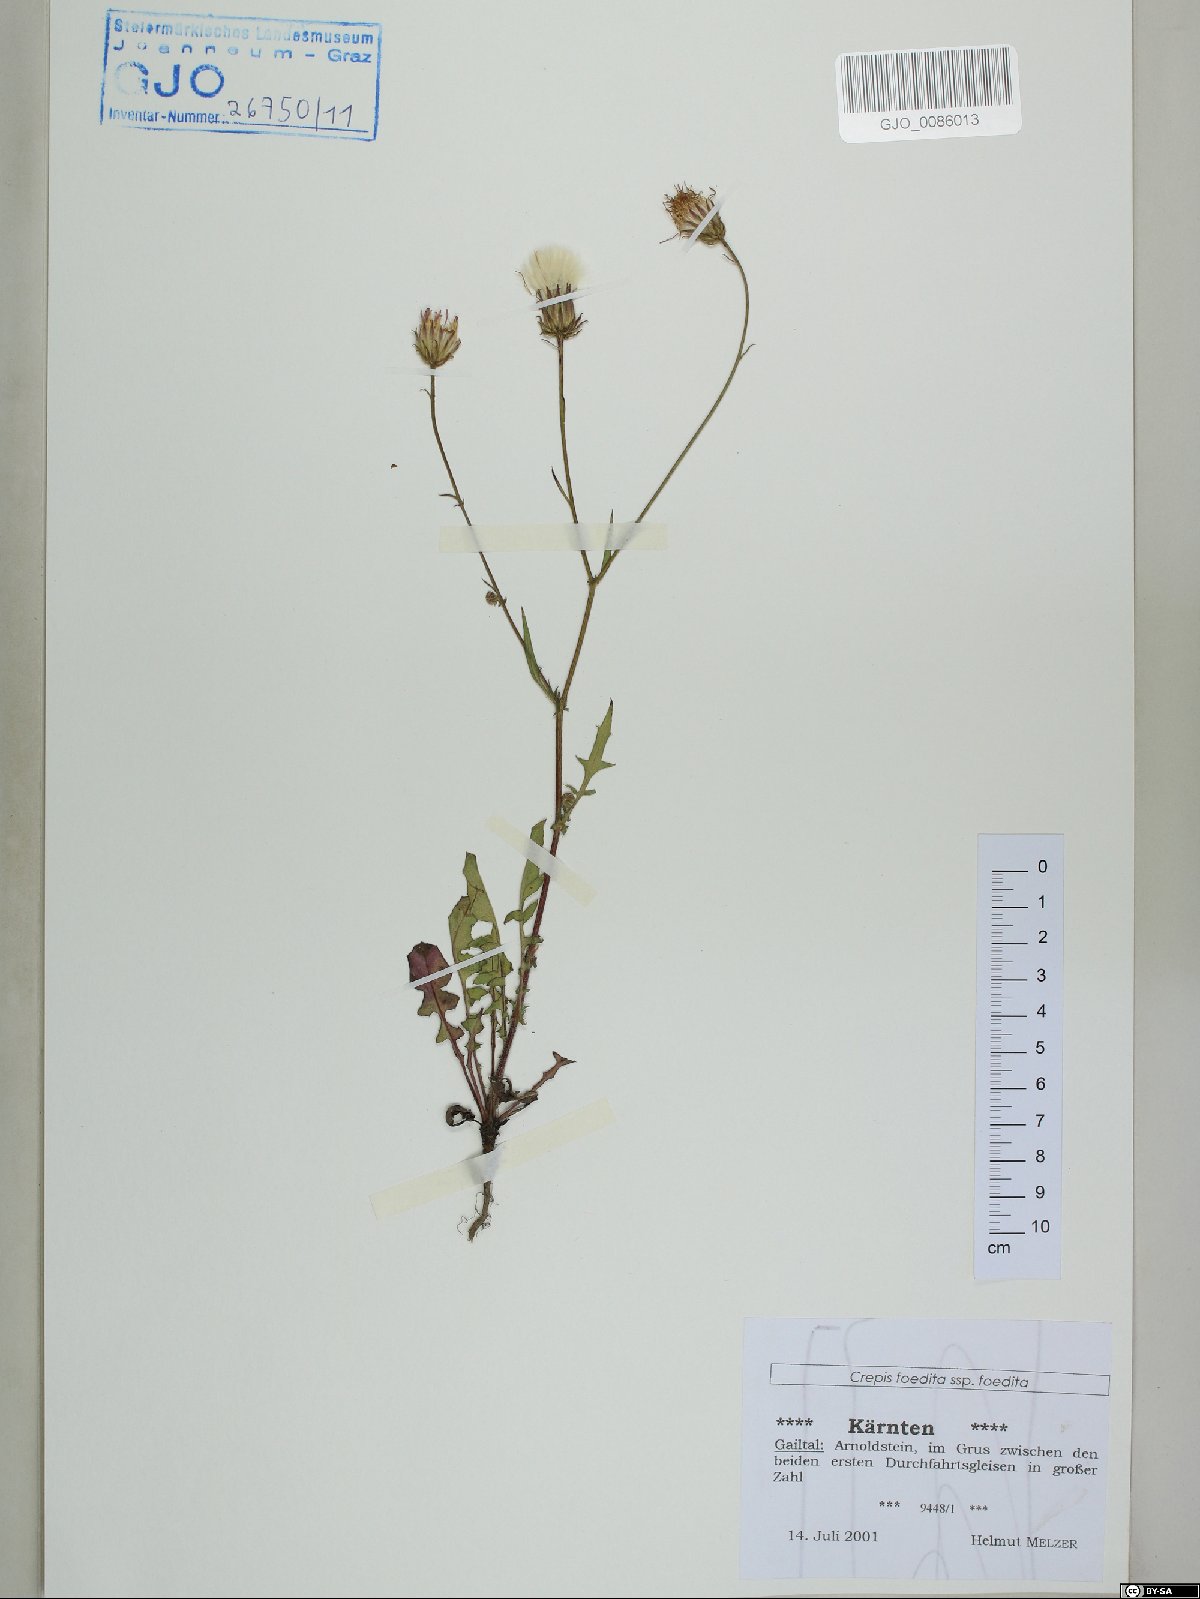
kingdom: Plantae
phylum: Tracheophyta
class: Magnoliopsida
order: Asterales
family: Asteraceae
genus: Crepis
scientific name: Crepis foetida
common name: Stinking hawk's-beard
